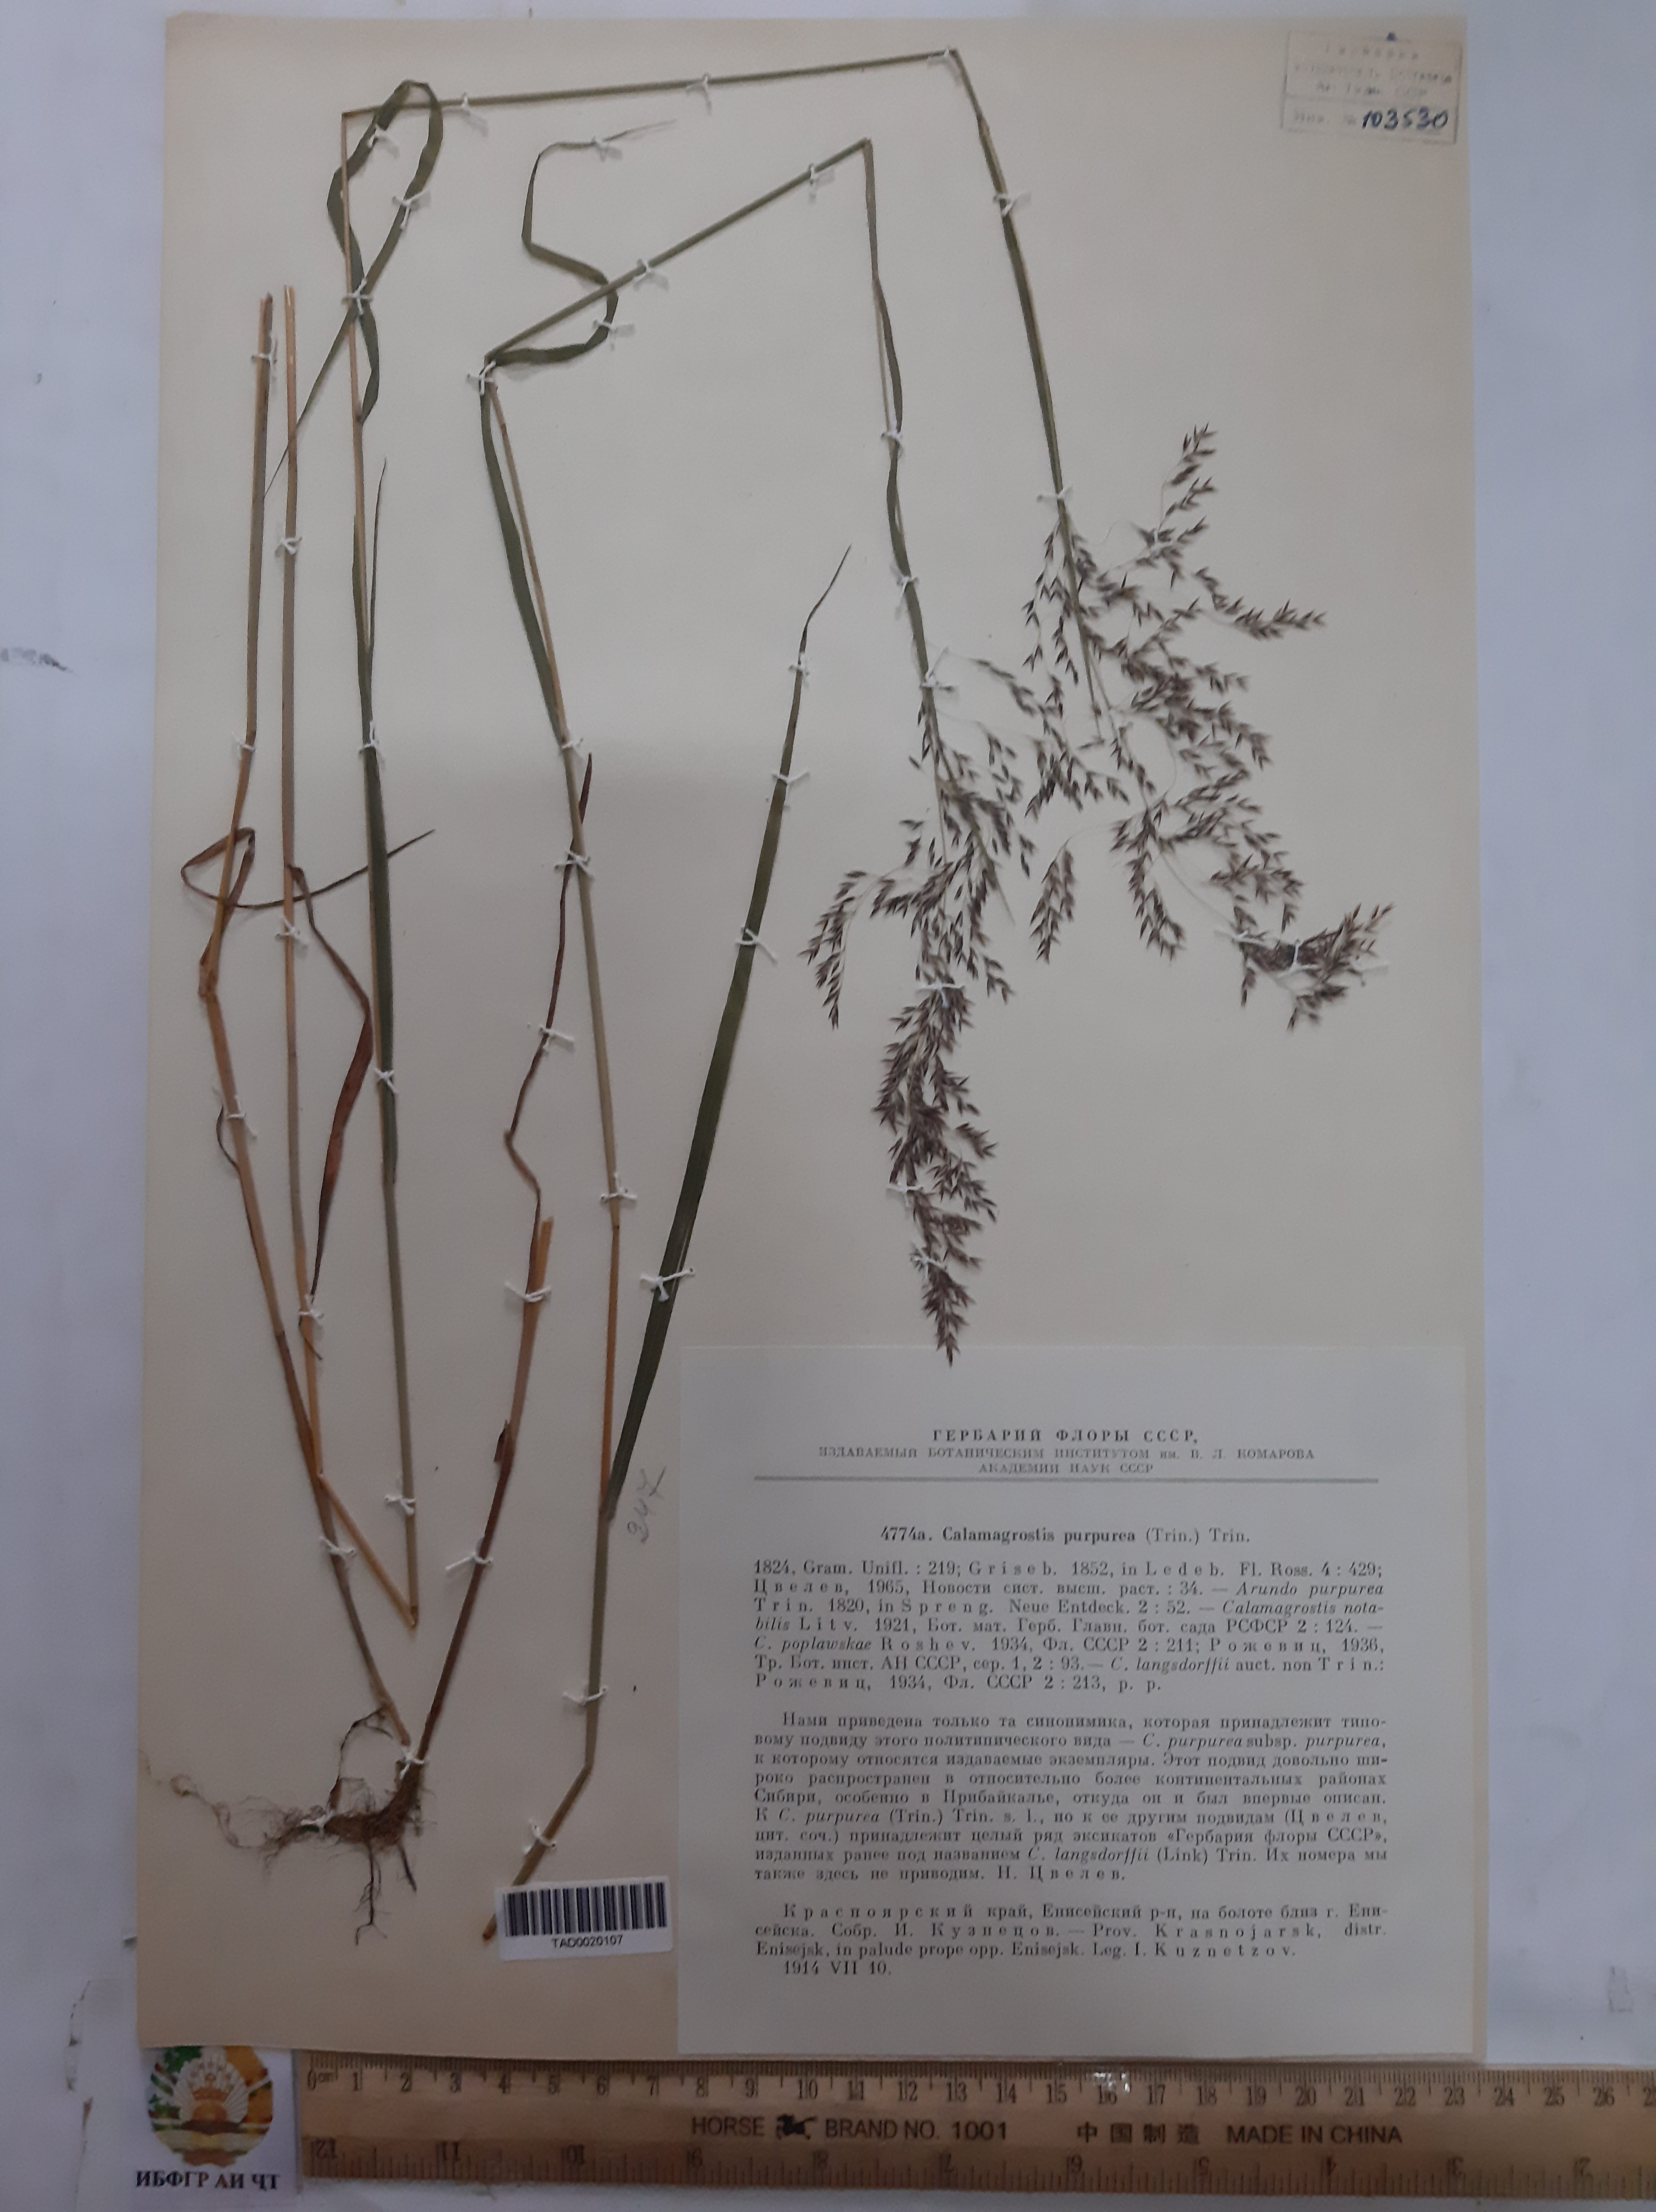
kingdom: Plantae
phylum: Tracheophyta
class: Liliopsida
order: Poales
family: Poaceae
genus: Calamagrostis
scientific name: Calamagrostis purpurea
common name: Scandinavian small-reed
